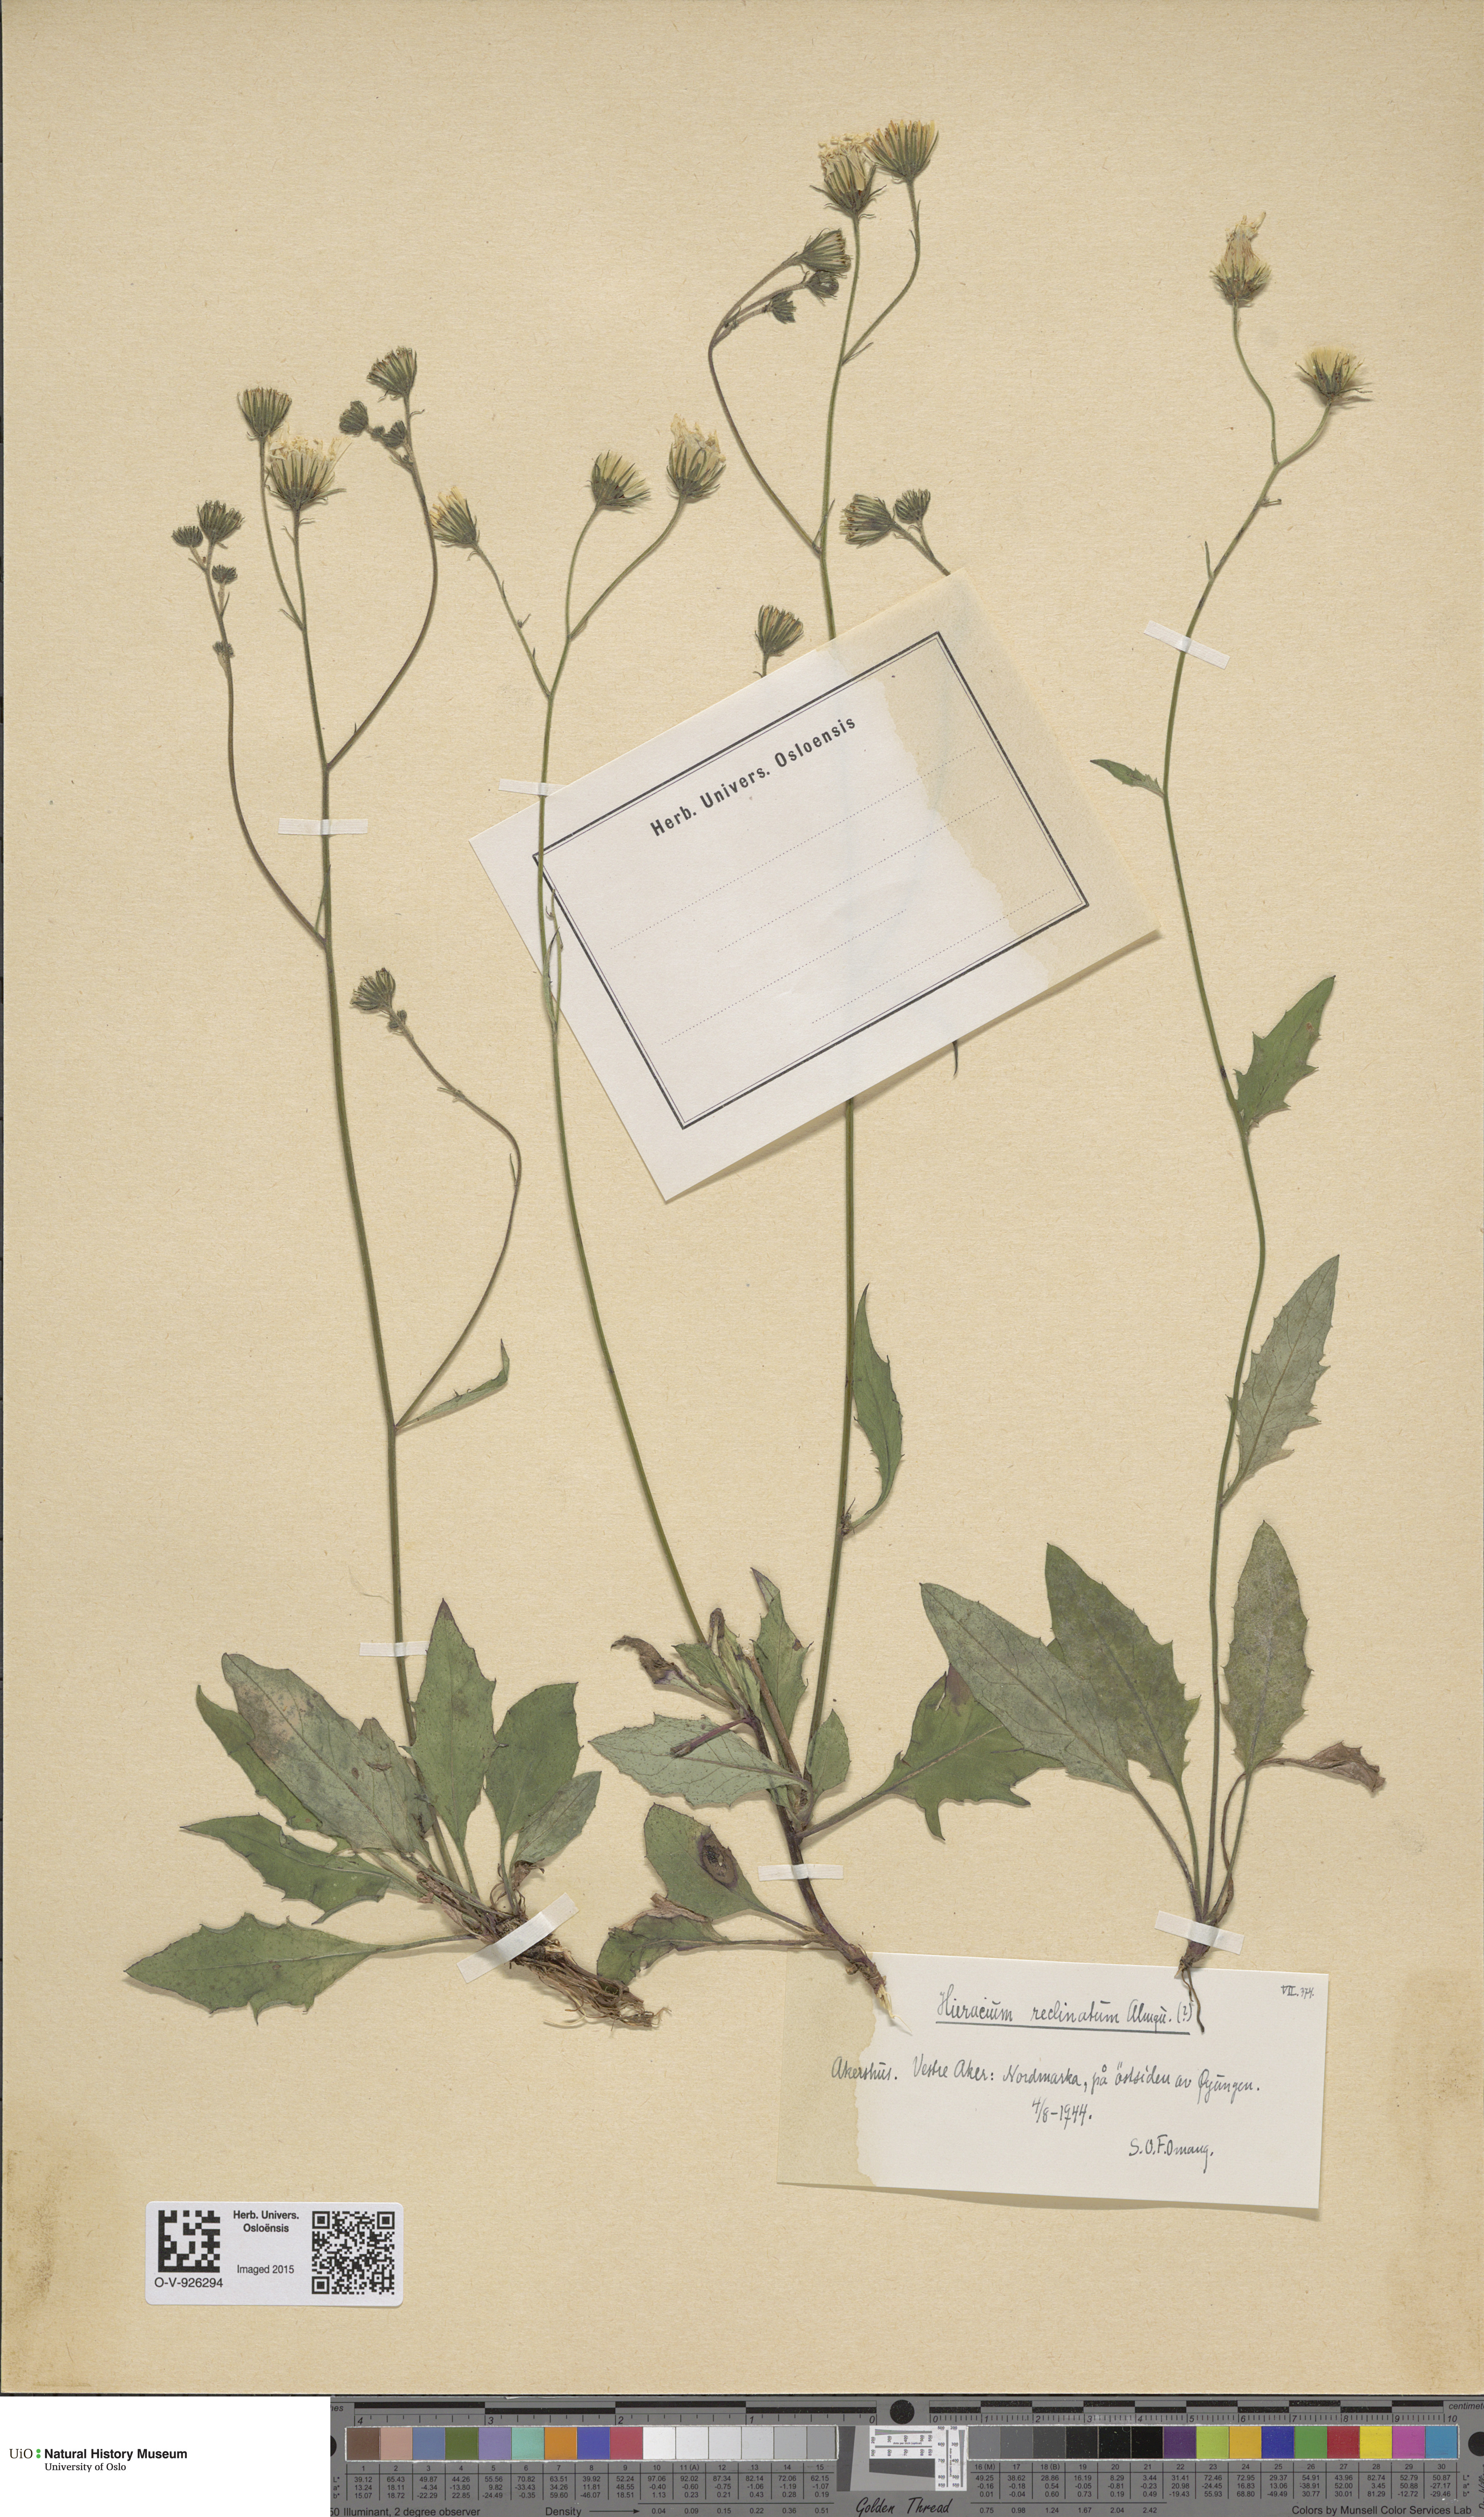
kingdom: Plantae
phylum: Tracheophyta
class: Magnoliopsida
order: Asterales
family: Asteraceae
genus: Hieracium
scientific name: Hieracium caesium
